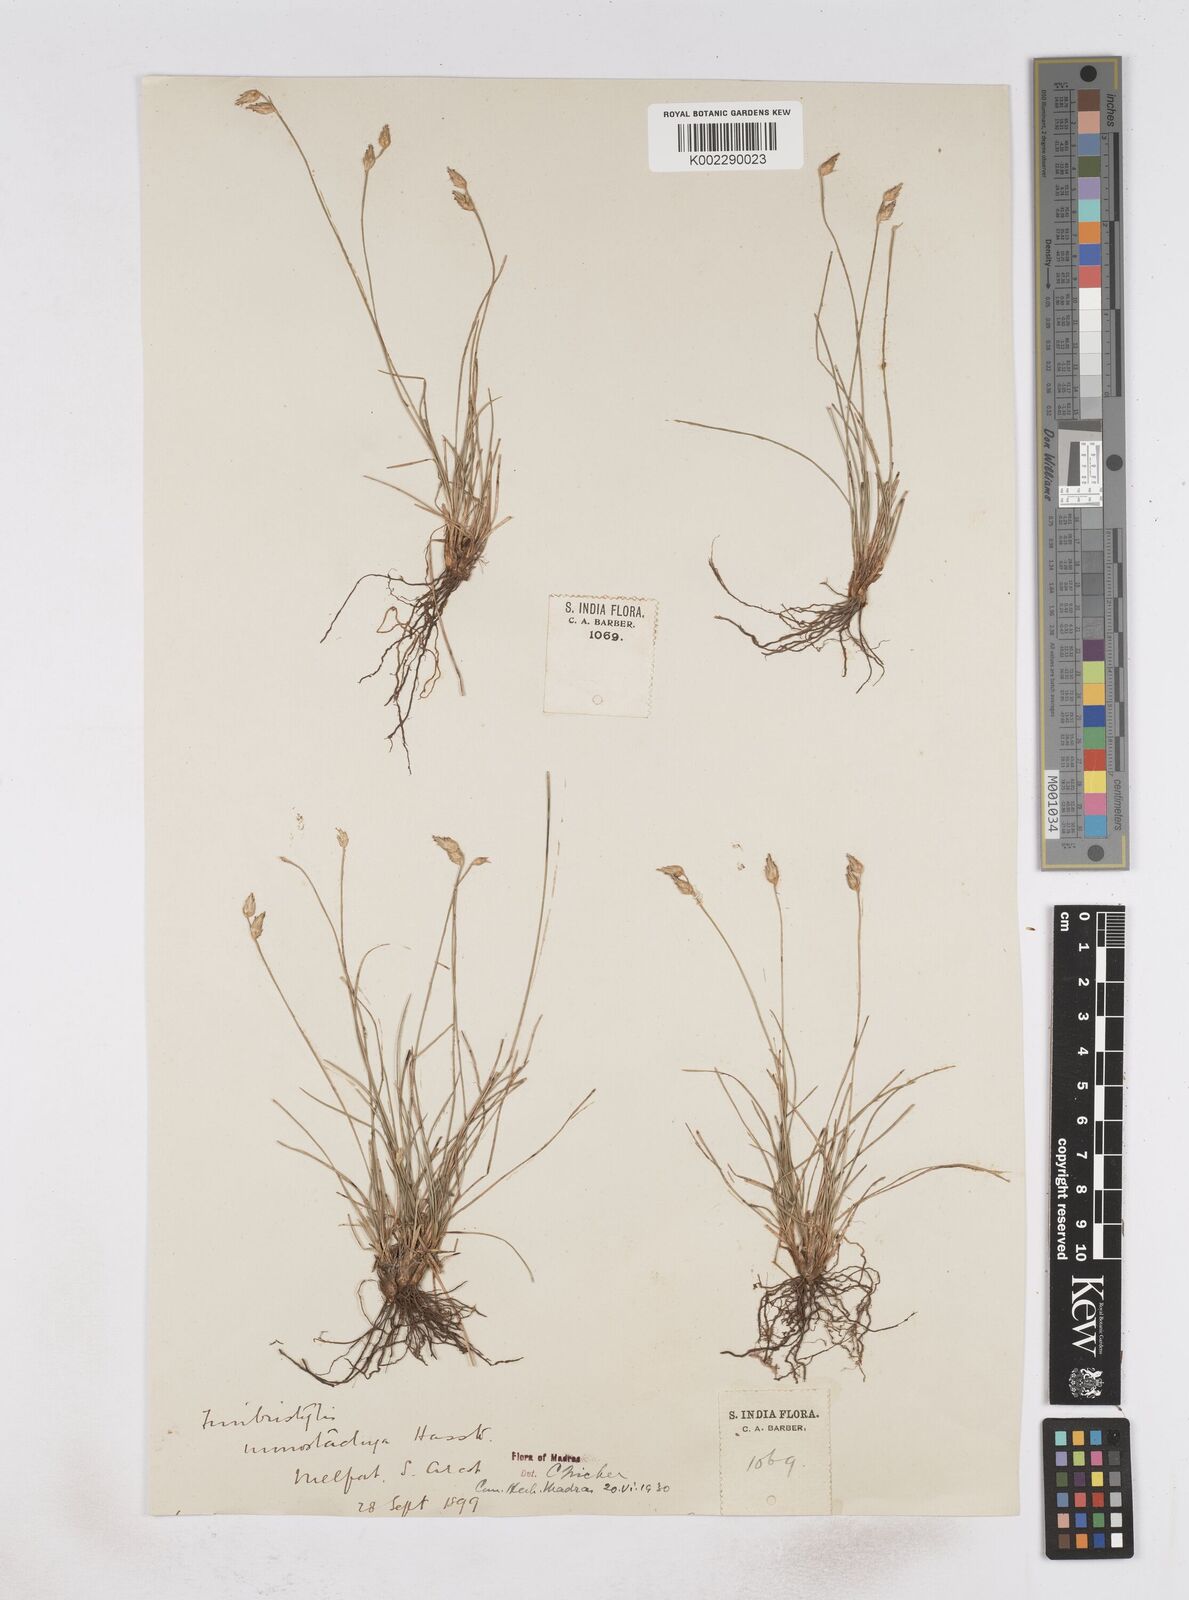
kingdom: Plantae
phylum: Tracheophyta
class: Liliopsida
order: Poales
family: Cyperaceae
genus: Abildgaardia
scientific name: Abildgaardia ovata
